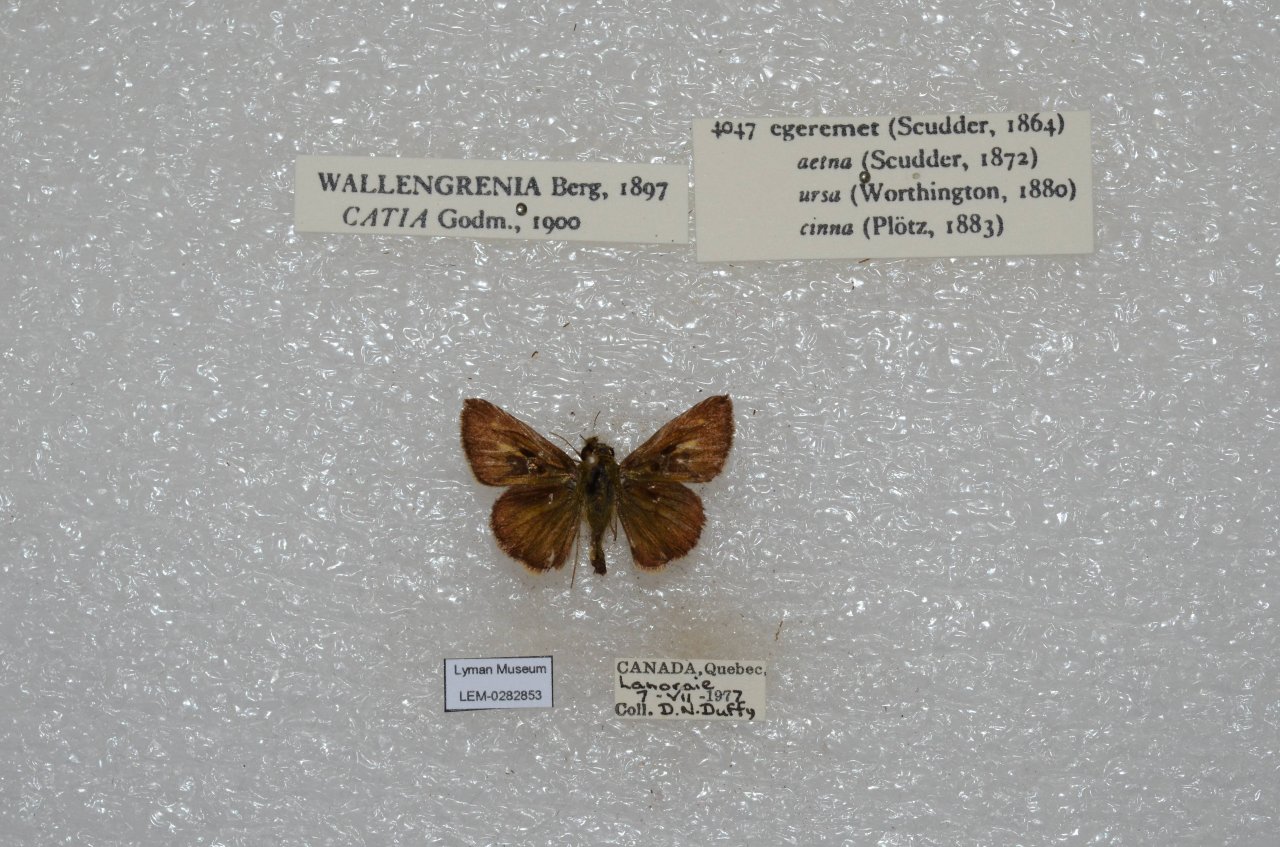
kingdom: Animalia
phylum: Arthropoda
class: Insecta
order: Lepidoptera
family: Hesperiidae
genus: Polites
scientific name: Polites egeremet
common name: Northern Broken-Dash
